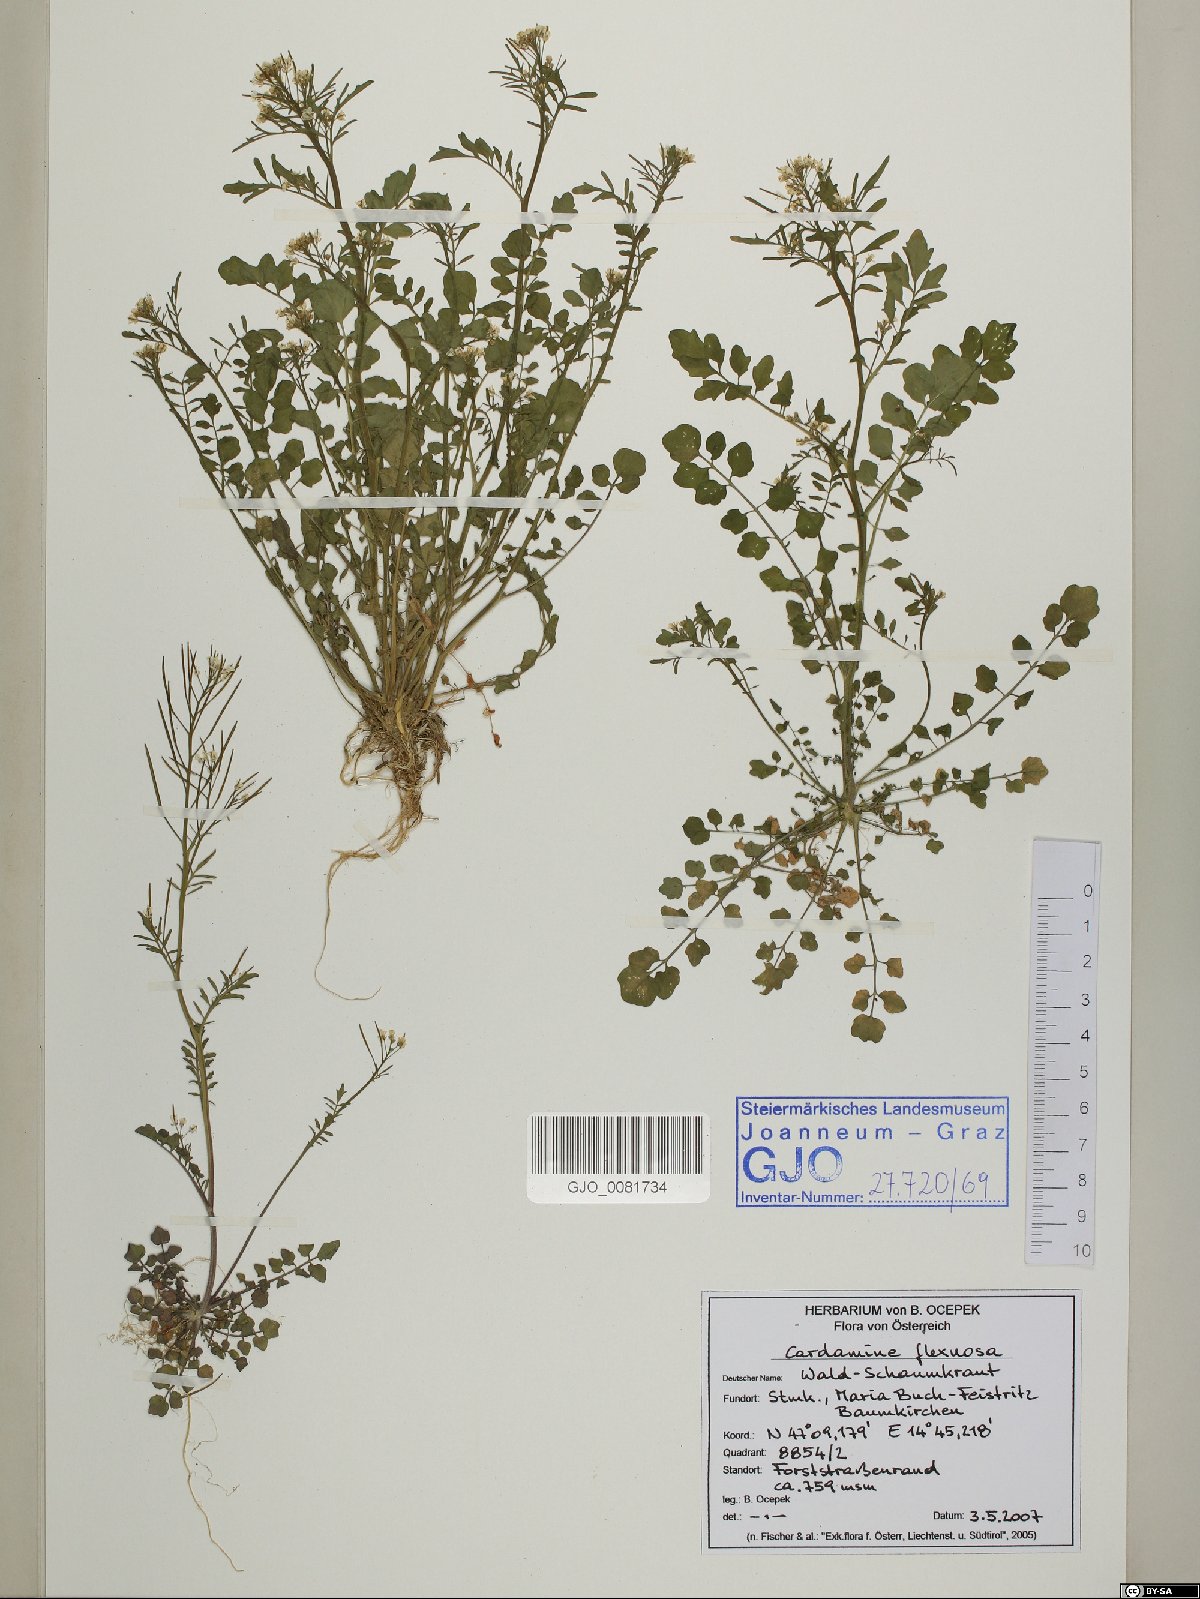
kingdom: Plantae
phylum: Tracheophyta
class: Magnoliopsida
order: Brassicales
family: Brassicaceae
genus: Cardamine
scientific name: Cardamine flexuosa
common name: Woodland bittercress
